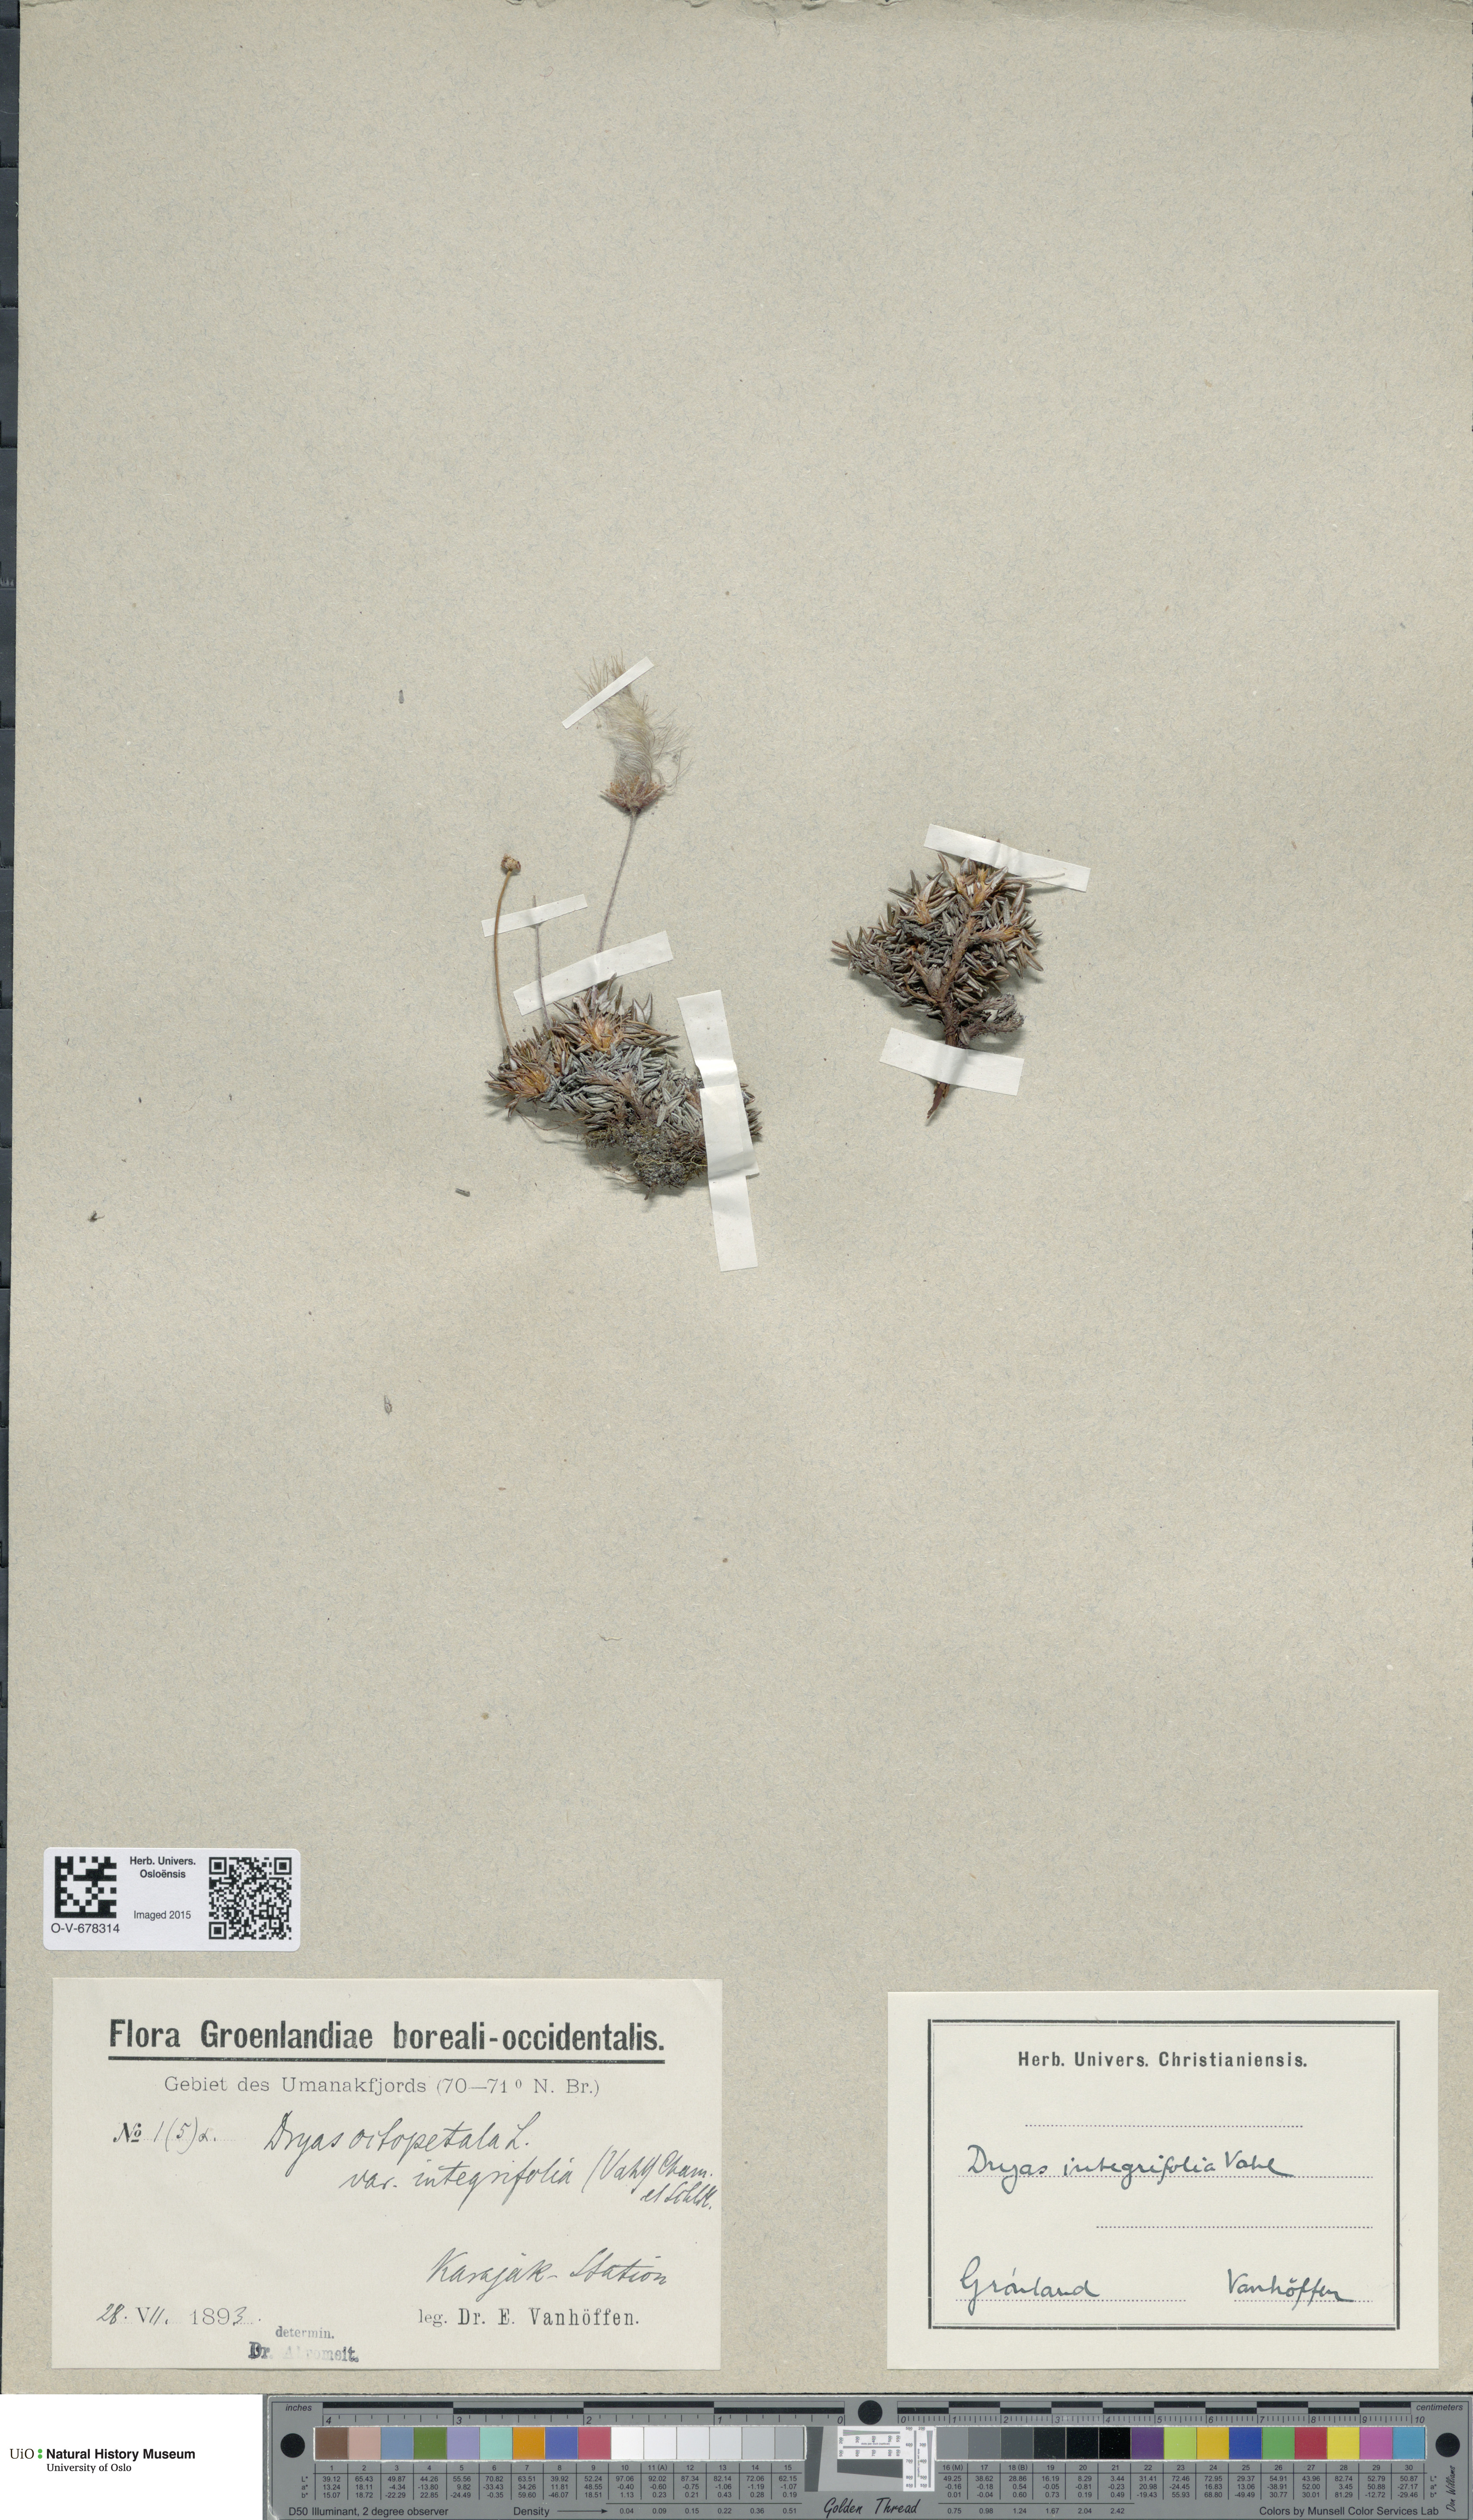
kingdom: Plantae
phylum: Tracheophyta
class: Magnoliopsida
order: Rosales
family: Rosaceae
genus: Dryas
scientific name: Dryas integrifolia
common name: Entire-leaved mountain avens
